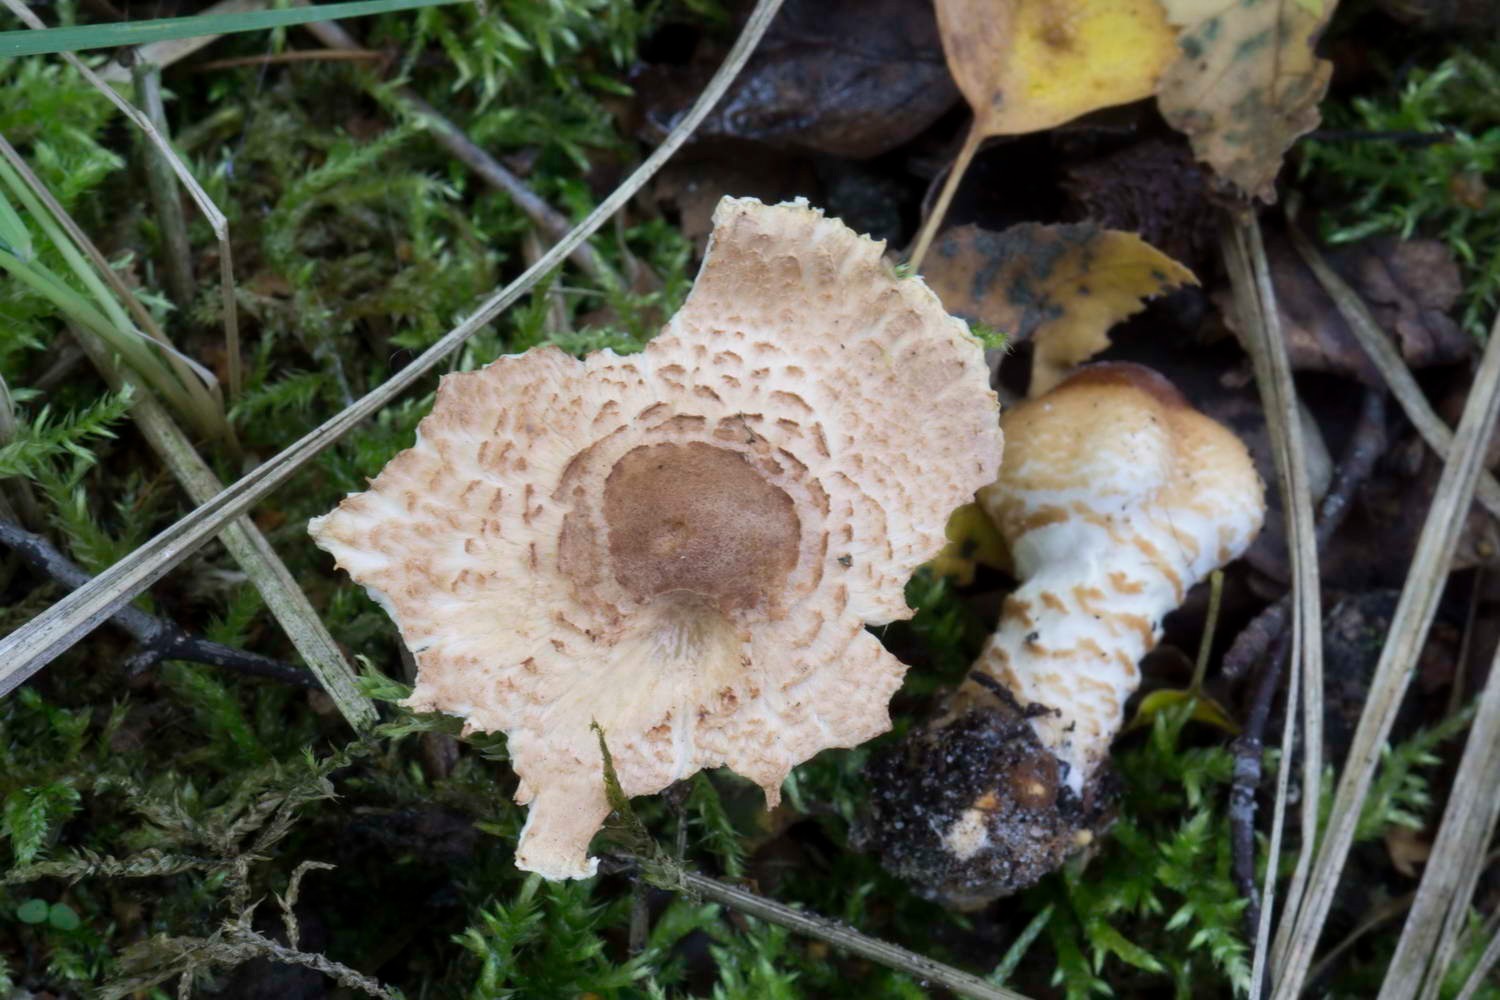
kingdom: Fungi
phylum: Basidiomycota
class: Agaricomycetes
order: Agaricales
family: Agaricaceae
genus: Lepiota
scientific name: Lepiota magnispora
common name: gulfnugget parasolhat
